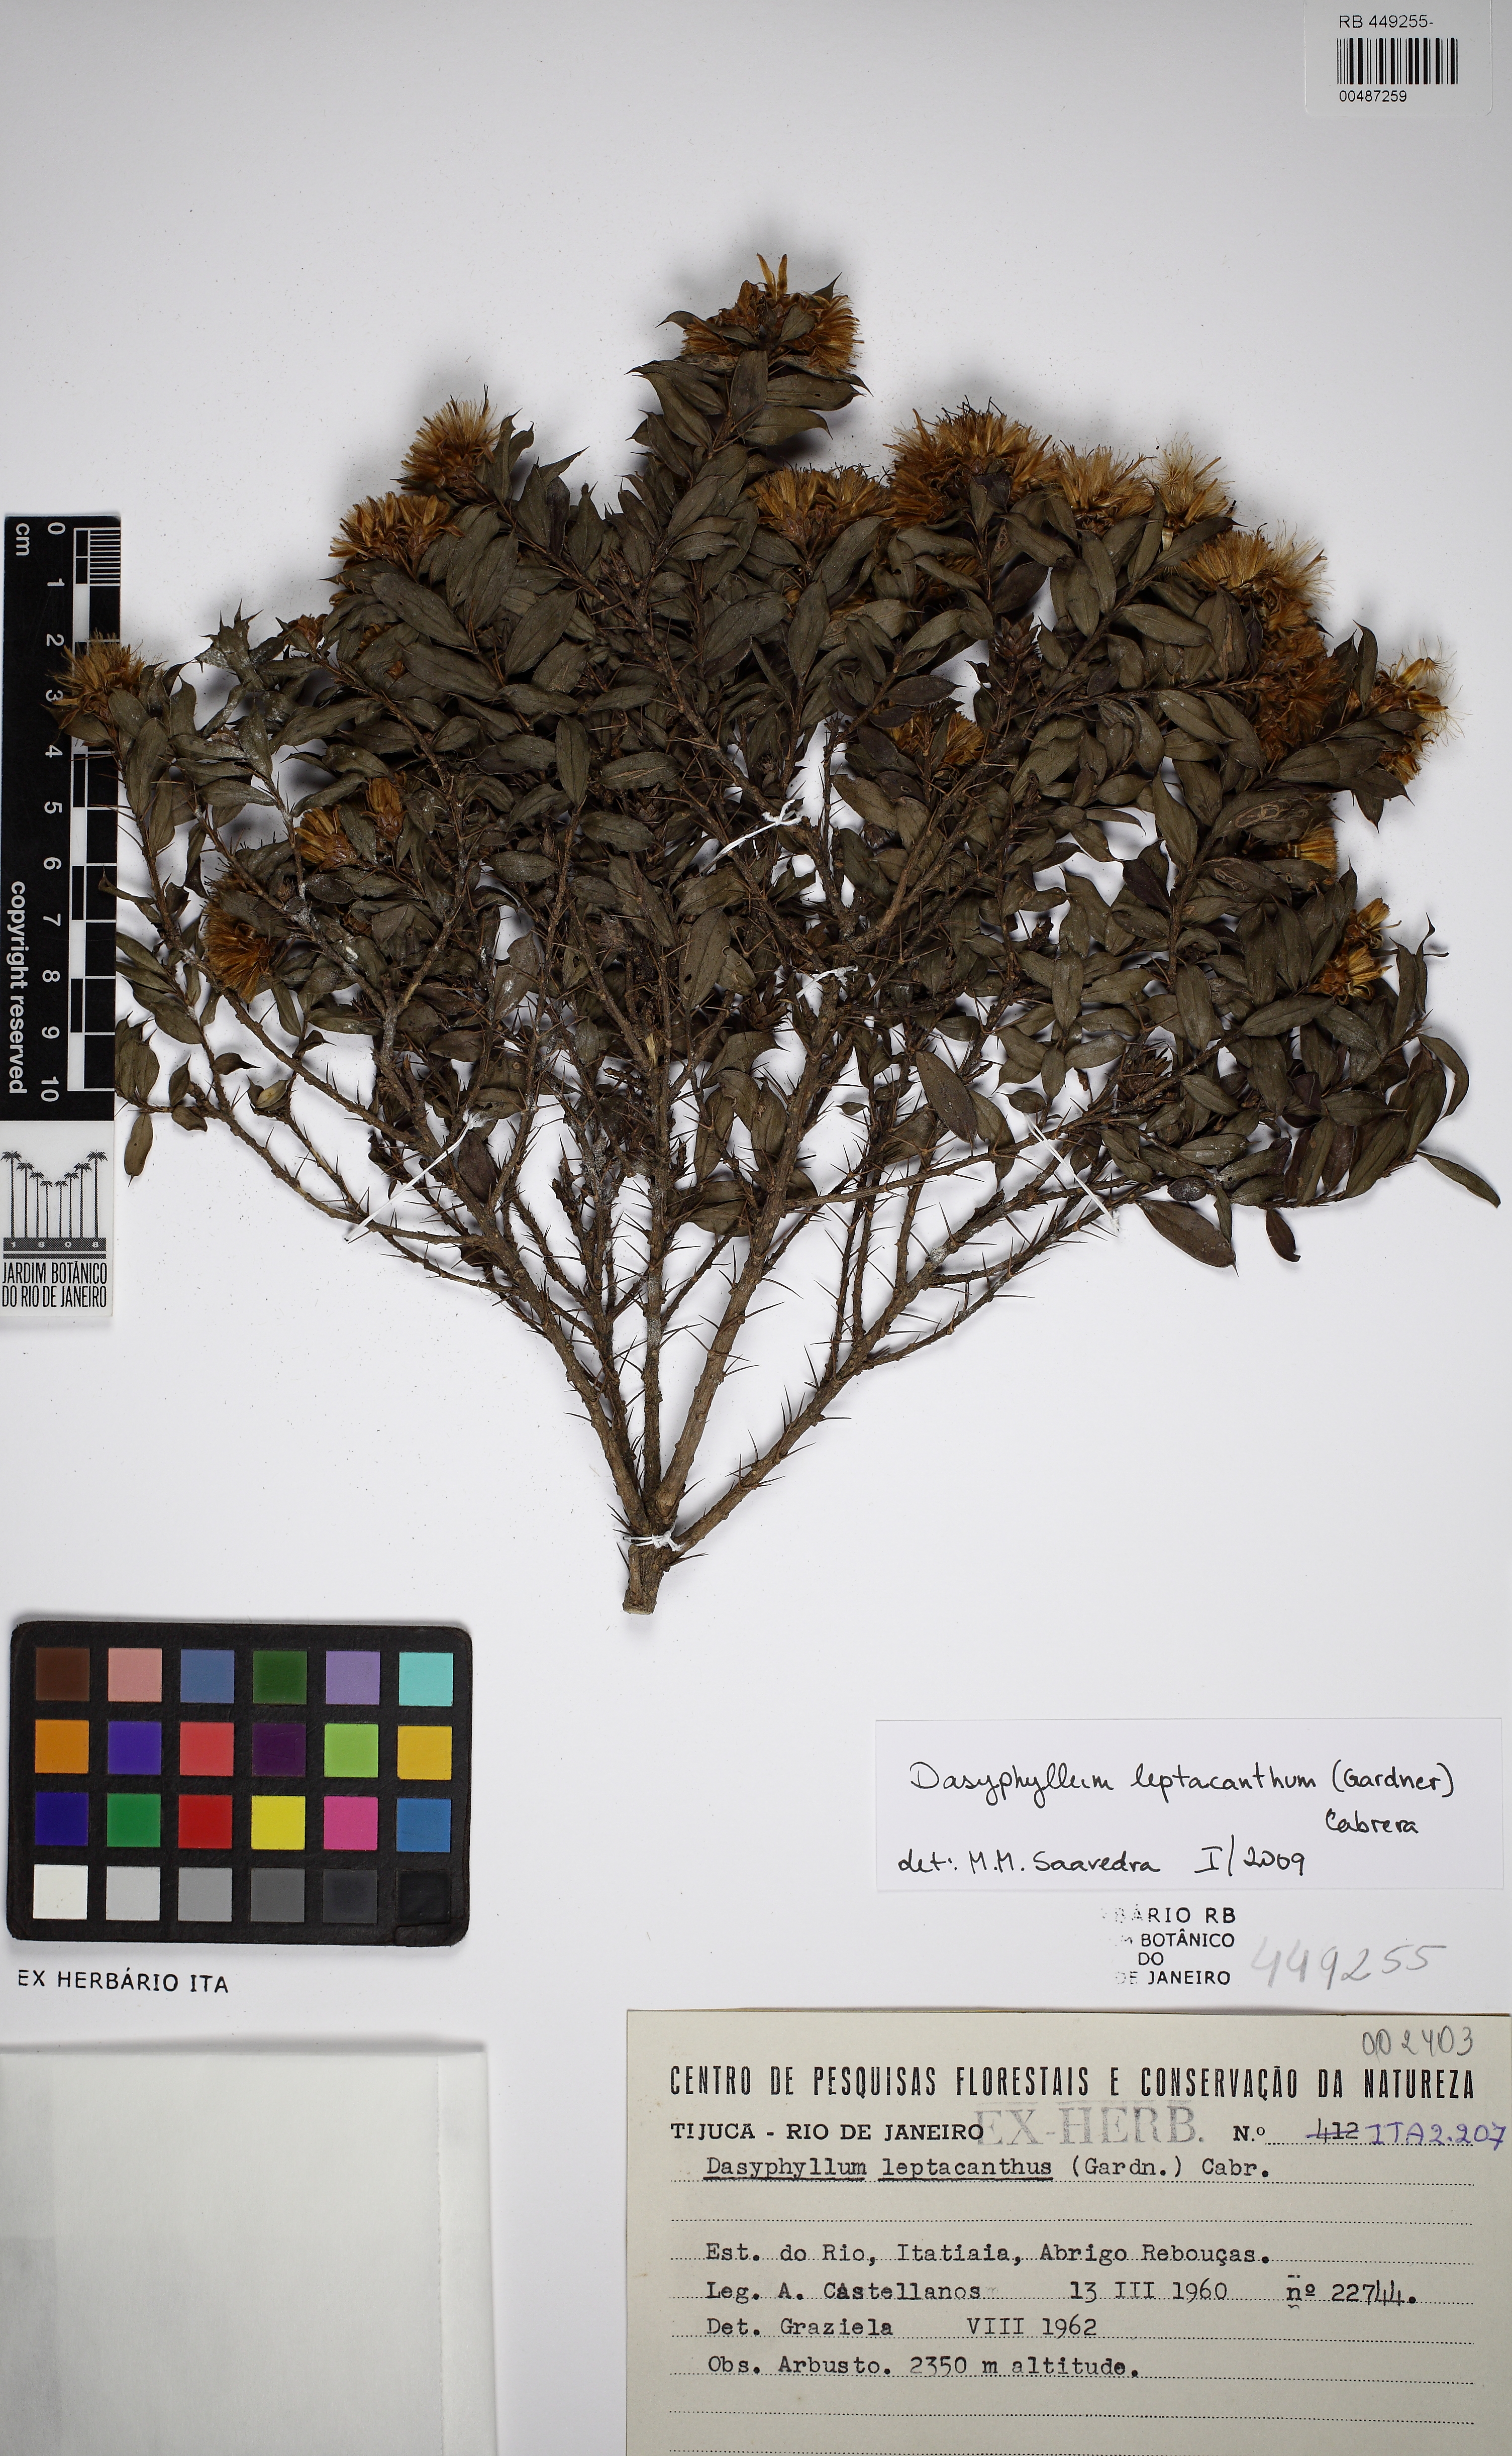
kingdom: Plantae
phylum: Tracheophyta
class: Magnoliopsida
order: Asterales
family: Asteraceae
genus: Dasyphyllum
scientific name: Dasyphyllum leptacanthum
